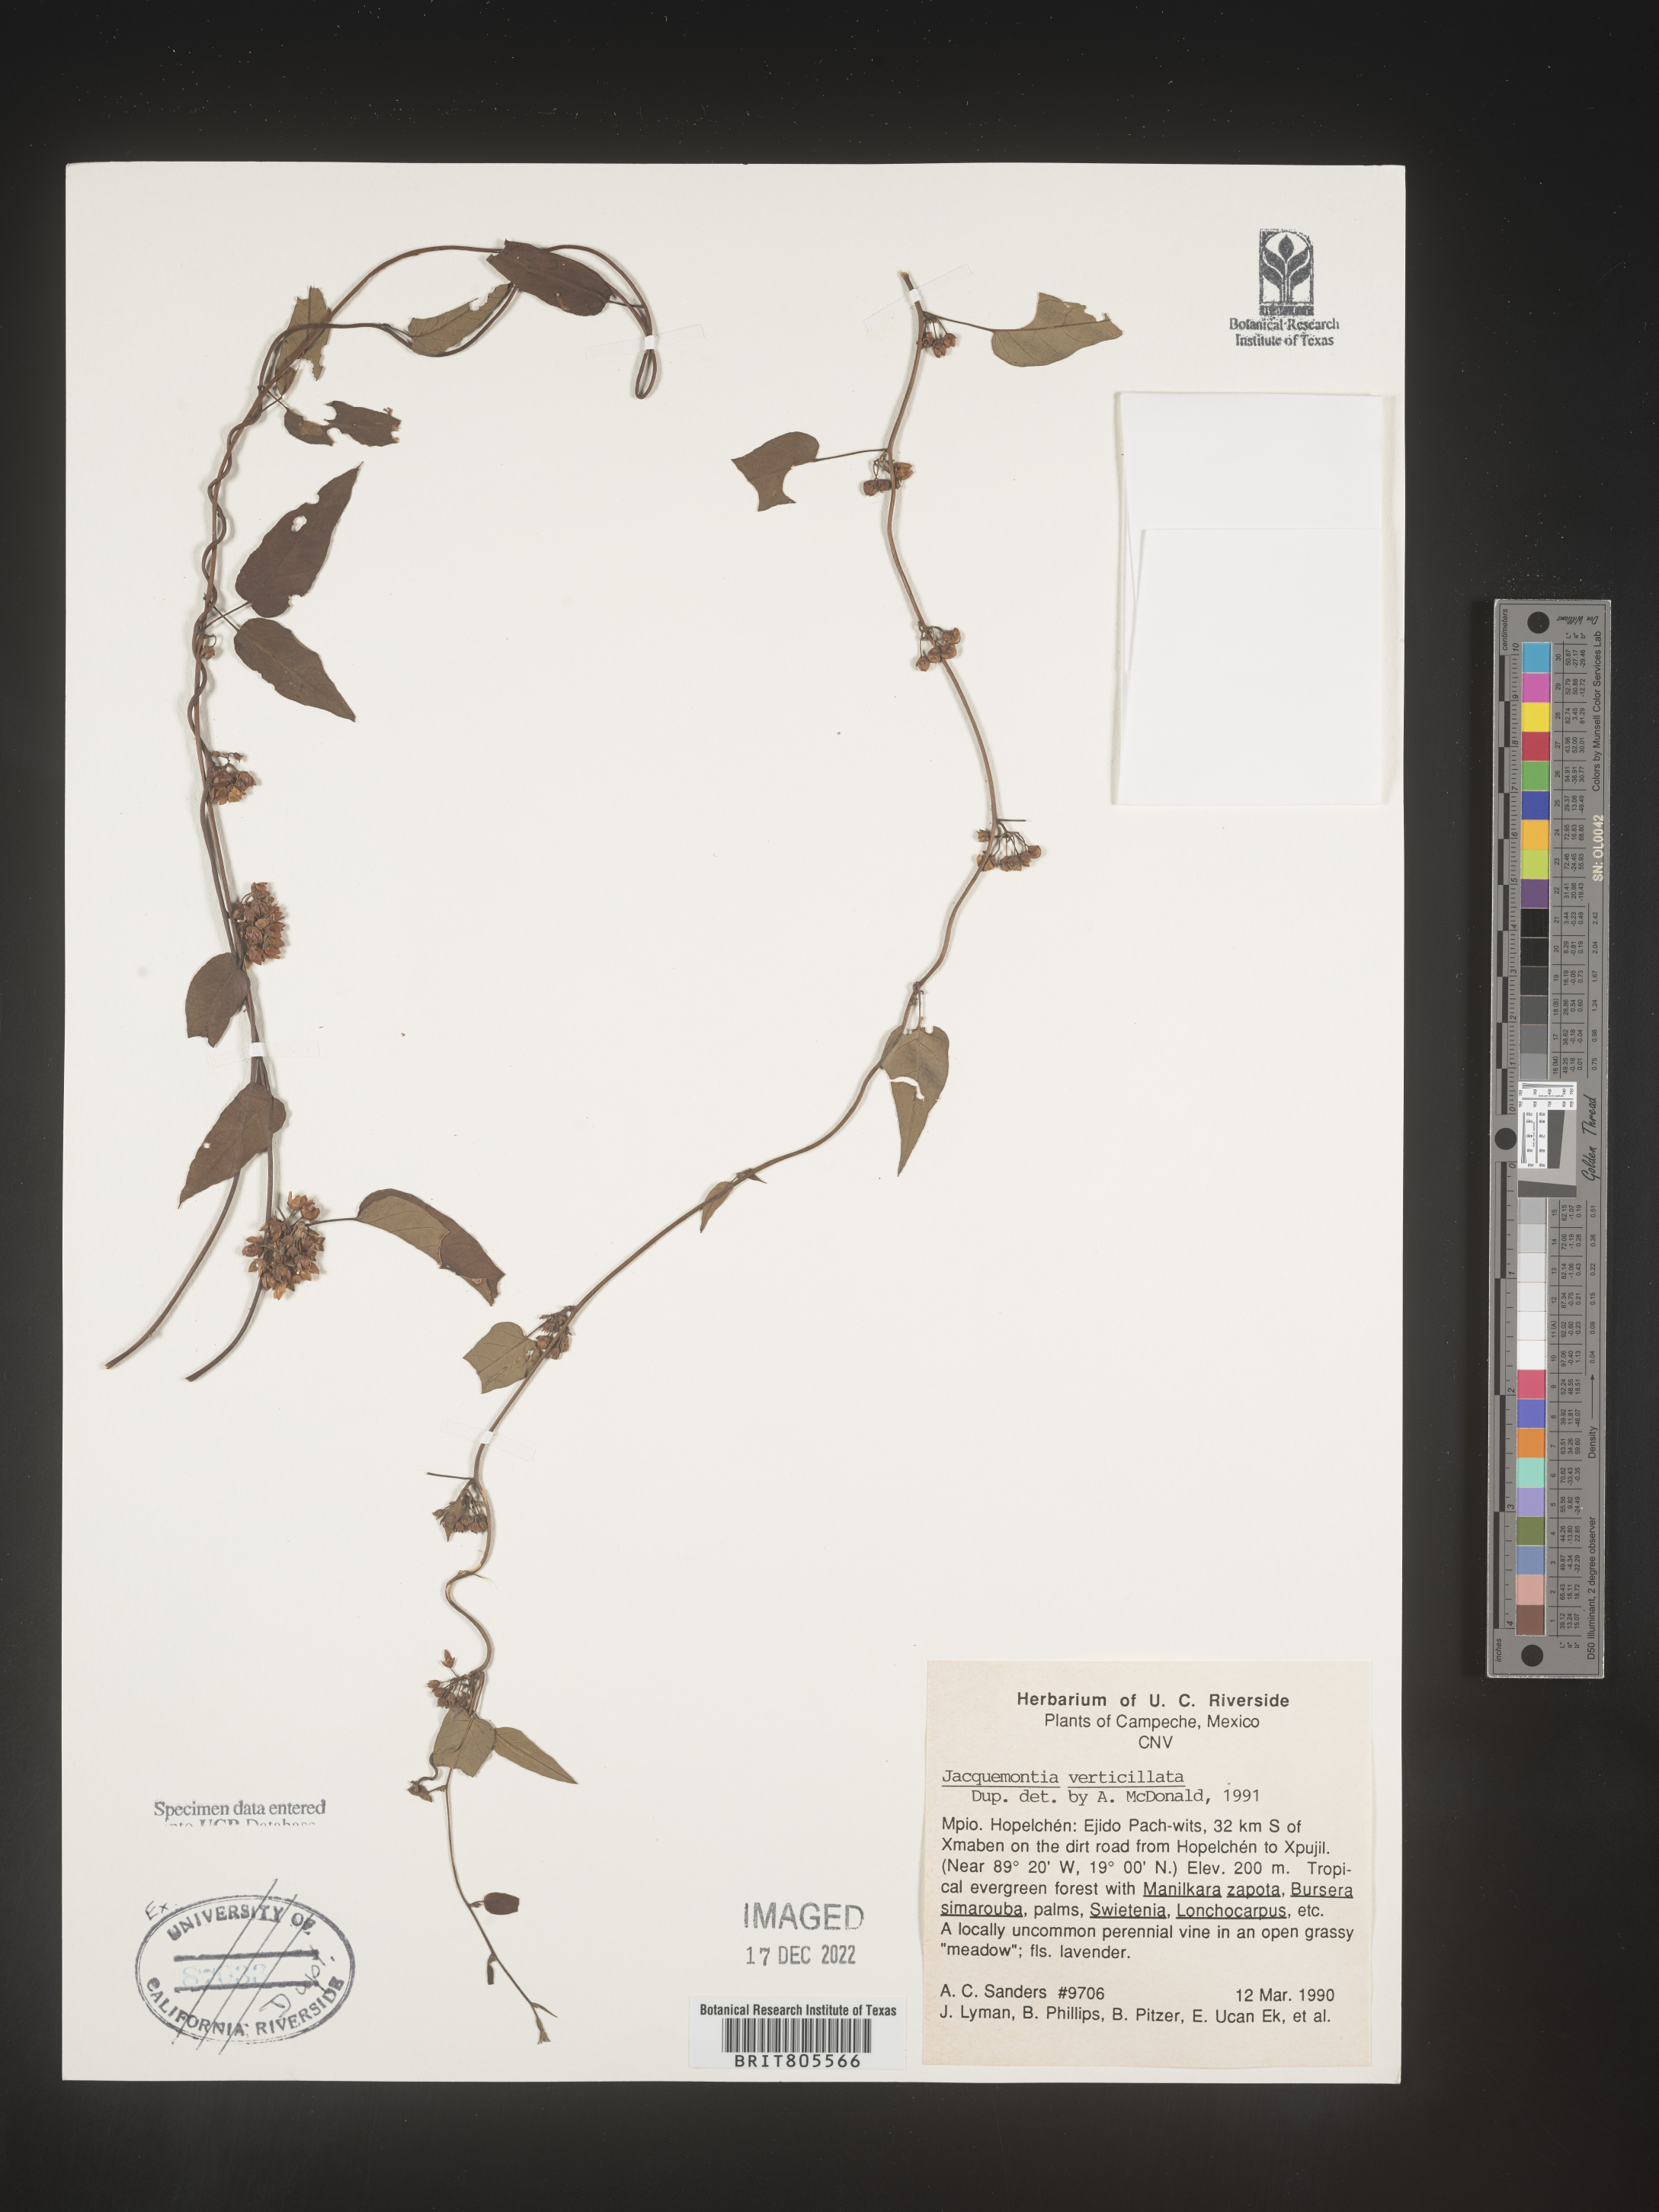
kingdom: Plantae
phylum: Tracheophyta
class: Magnoliopsida
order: Solanales
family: Convolvulaceae
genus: Jacquemontia
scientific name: Jacquemontia
